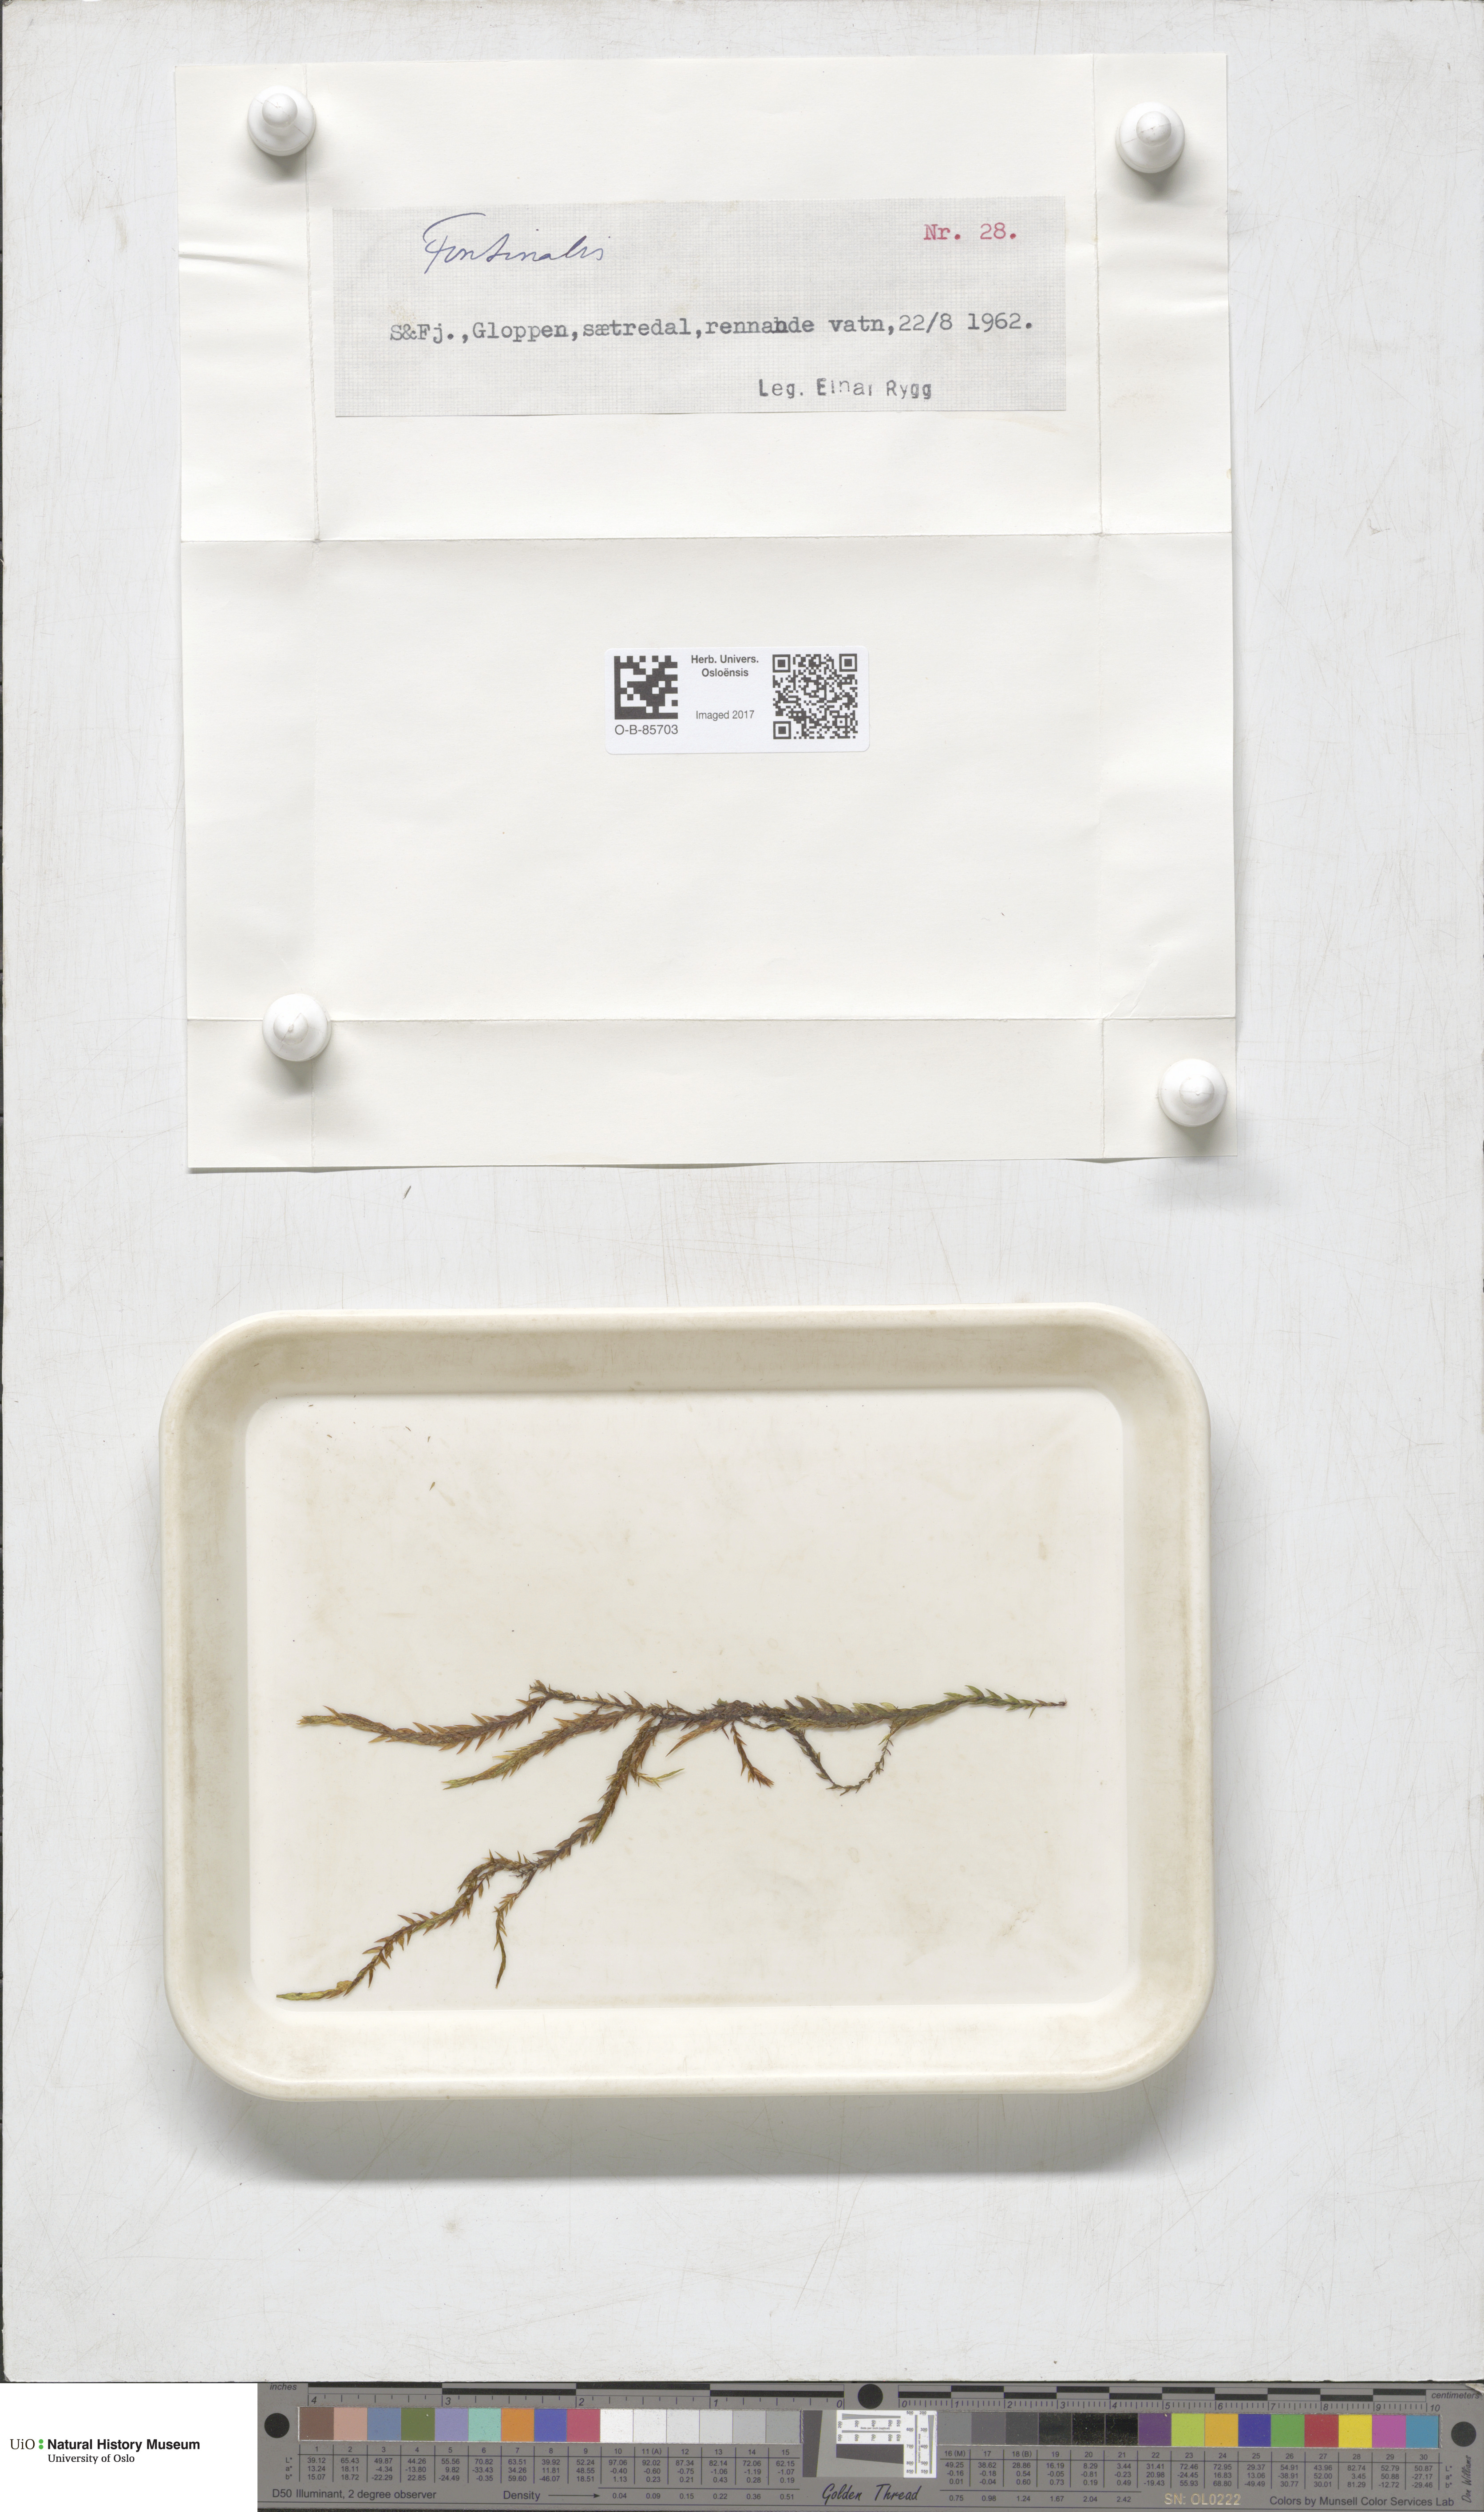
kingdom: Plantae
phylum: Bryophyta
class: Bryopsida
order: Hypnales
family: Fontinalaceae
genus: Fontinalis
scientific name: Fontinalis
